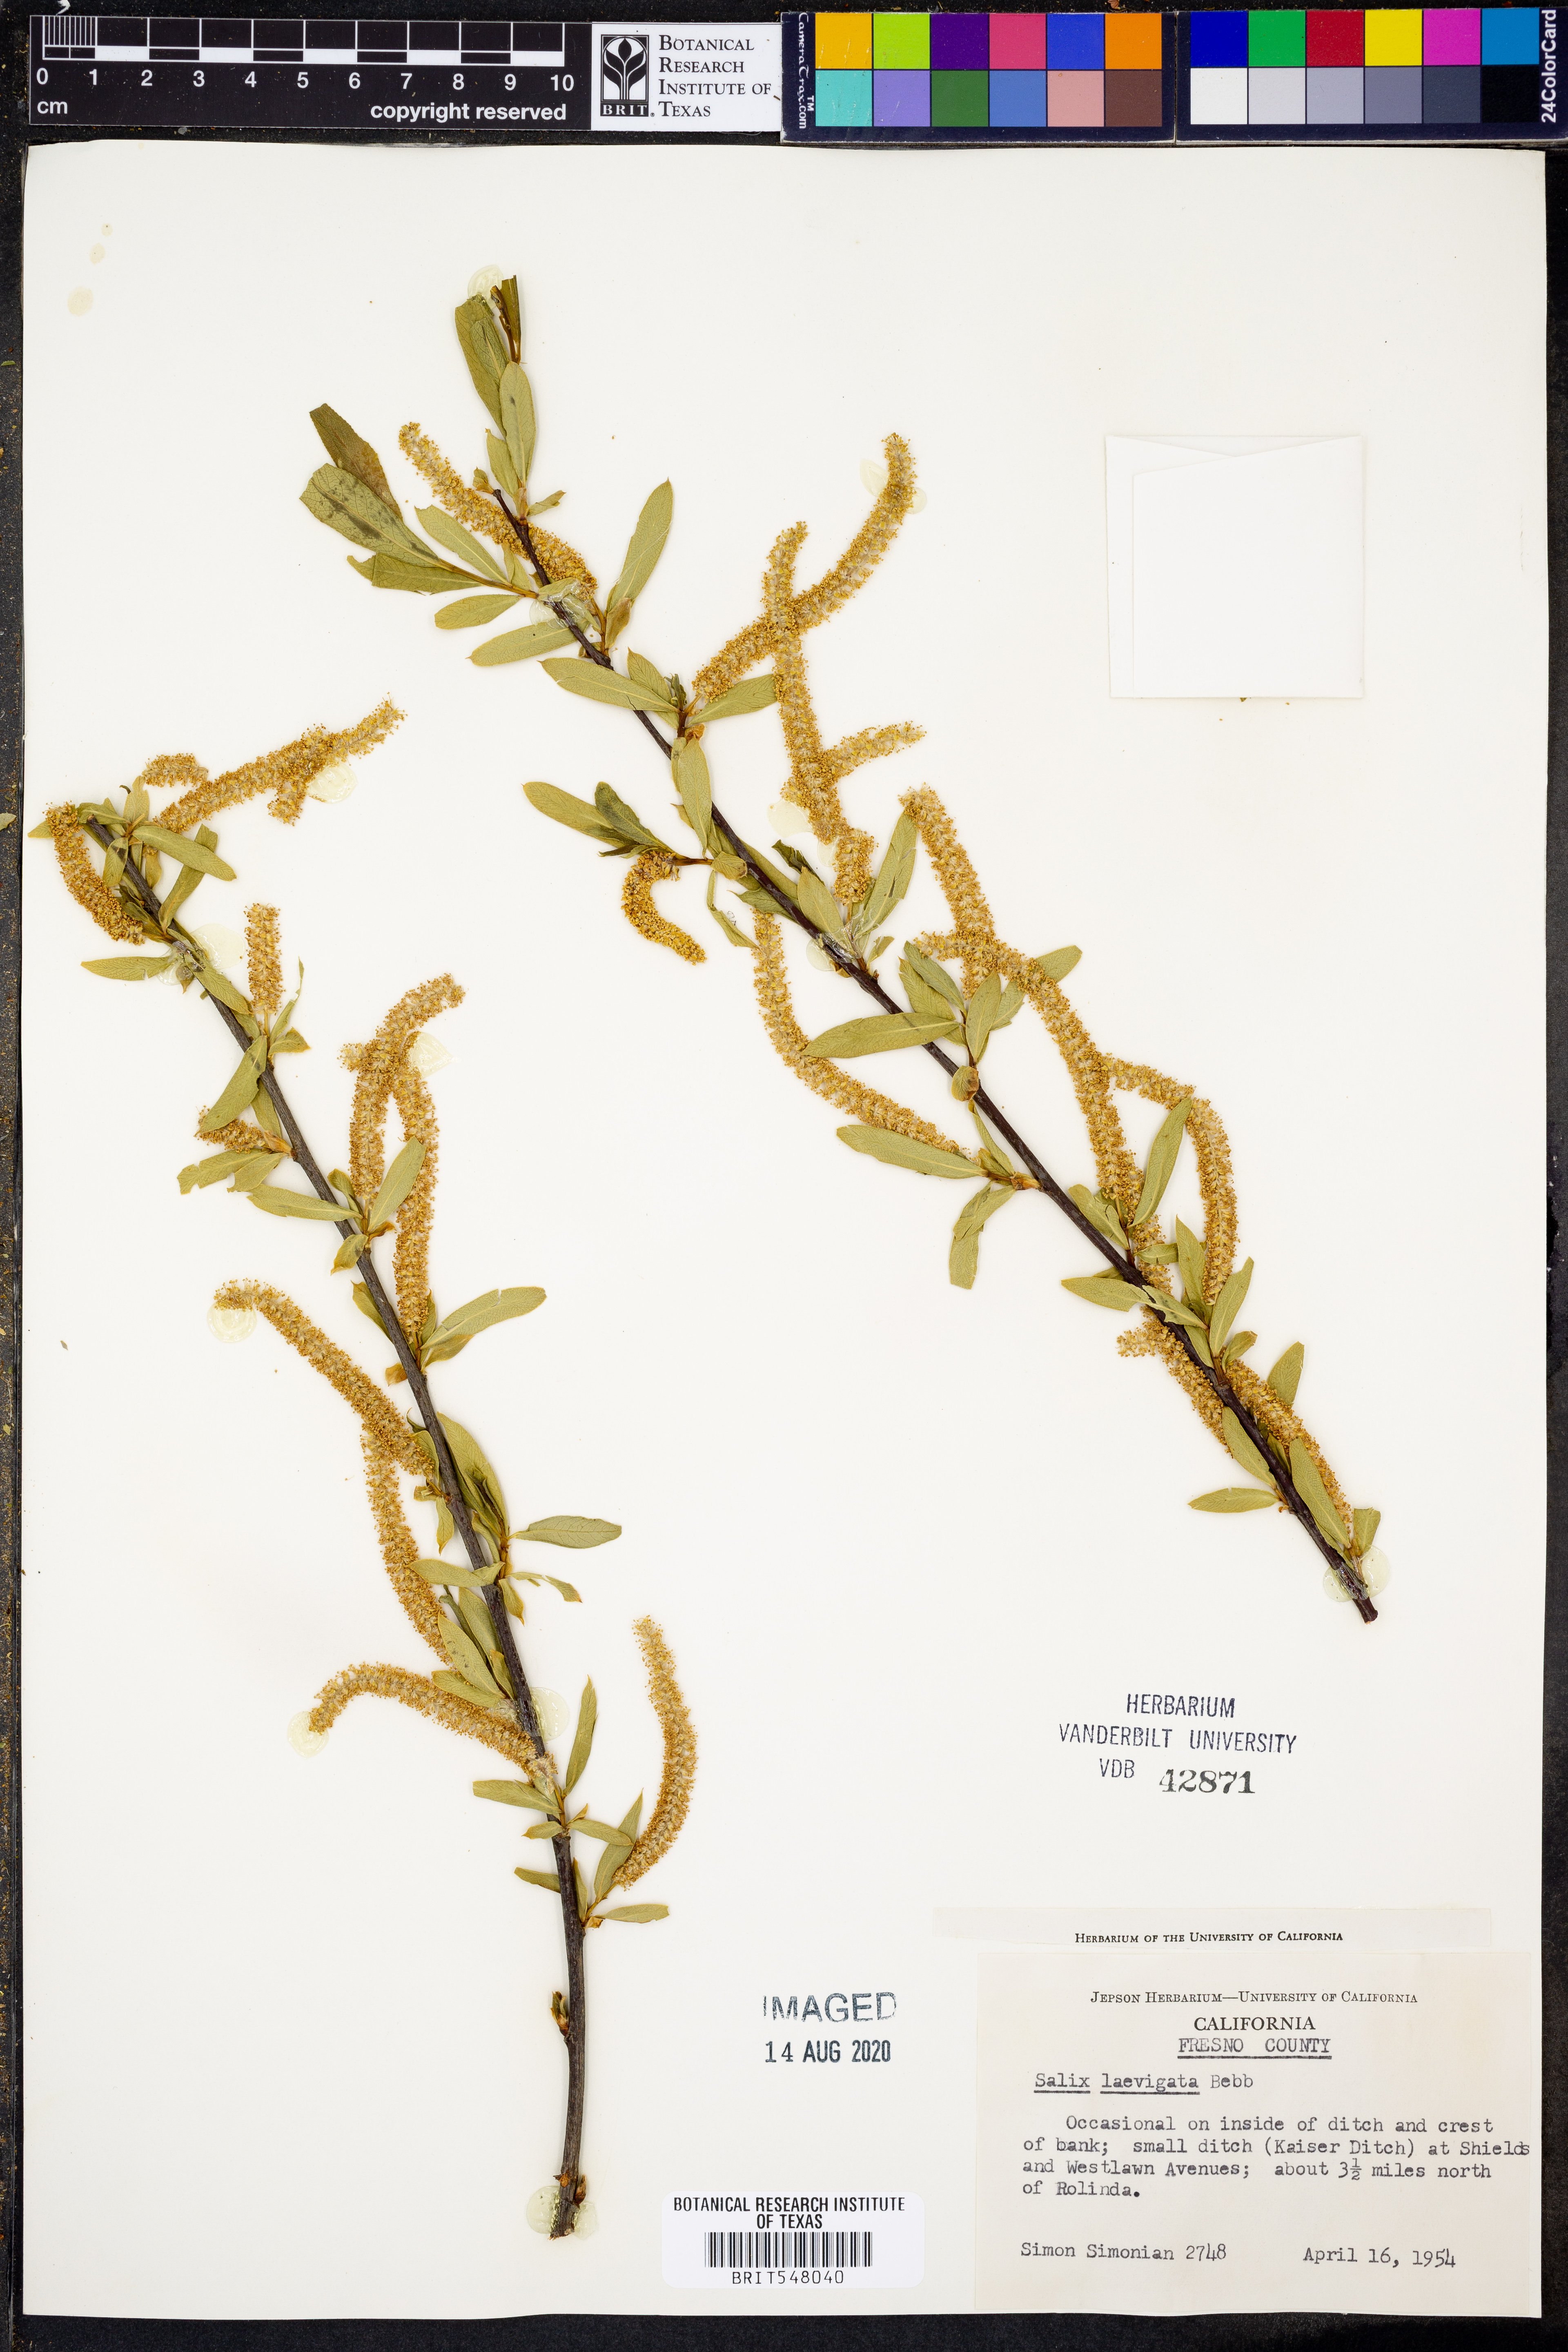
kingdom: Plantae
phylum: Tracheophyta
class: Magnoliopsida
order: Malpighiales
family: Salicaceae
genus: Salix
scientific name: Salix laevigata
